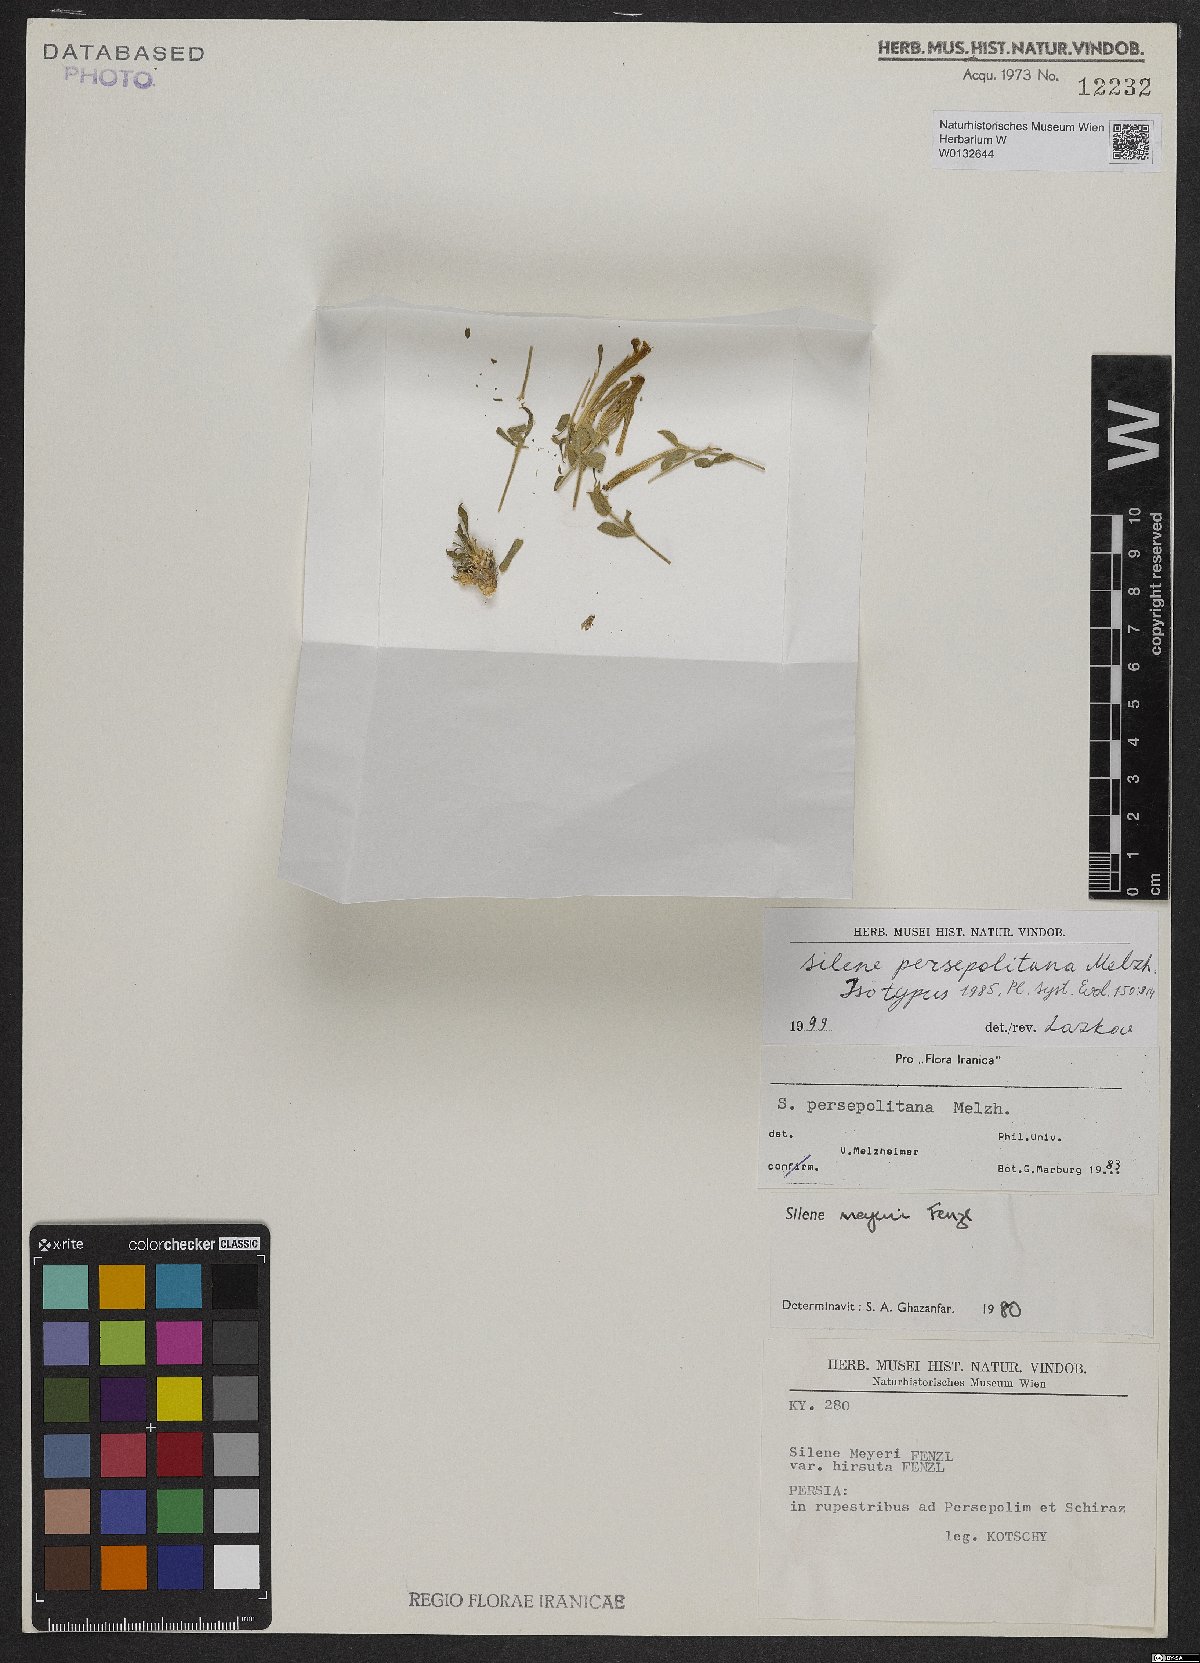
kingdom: Plantae
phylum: Tracheophyta
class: Magnoliopsida
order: Caryophyllales
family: Caryophyllaceae
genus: Silene
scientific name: Silene persepolitana
